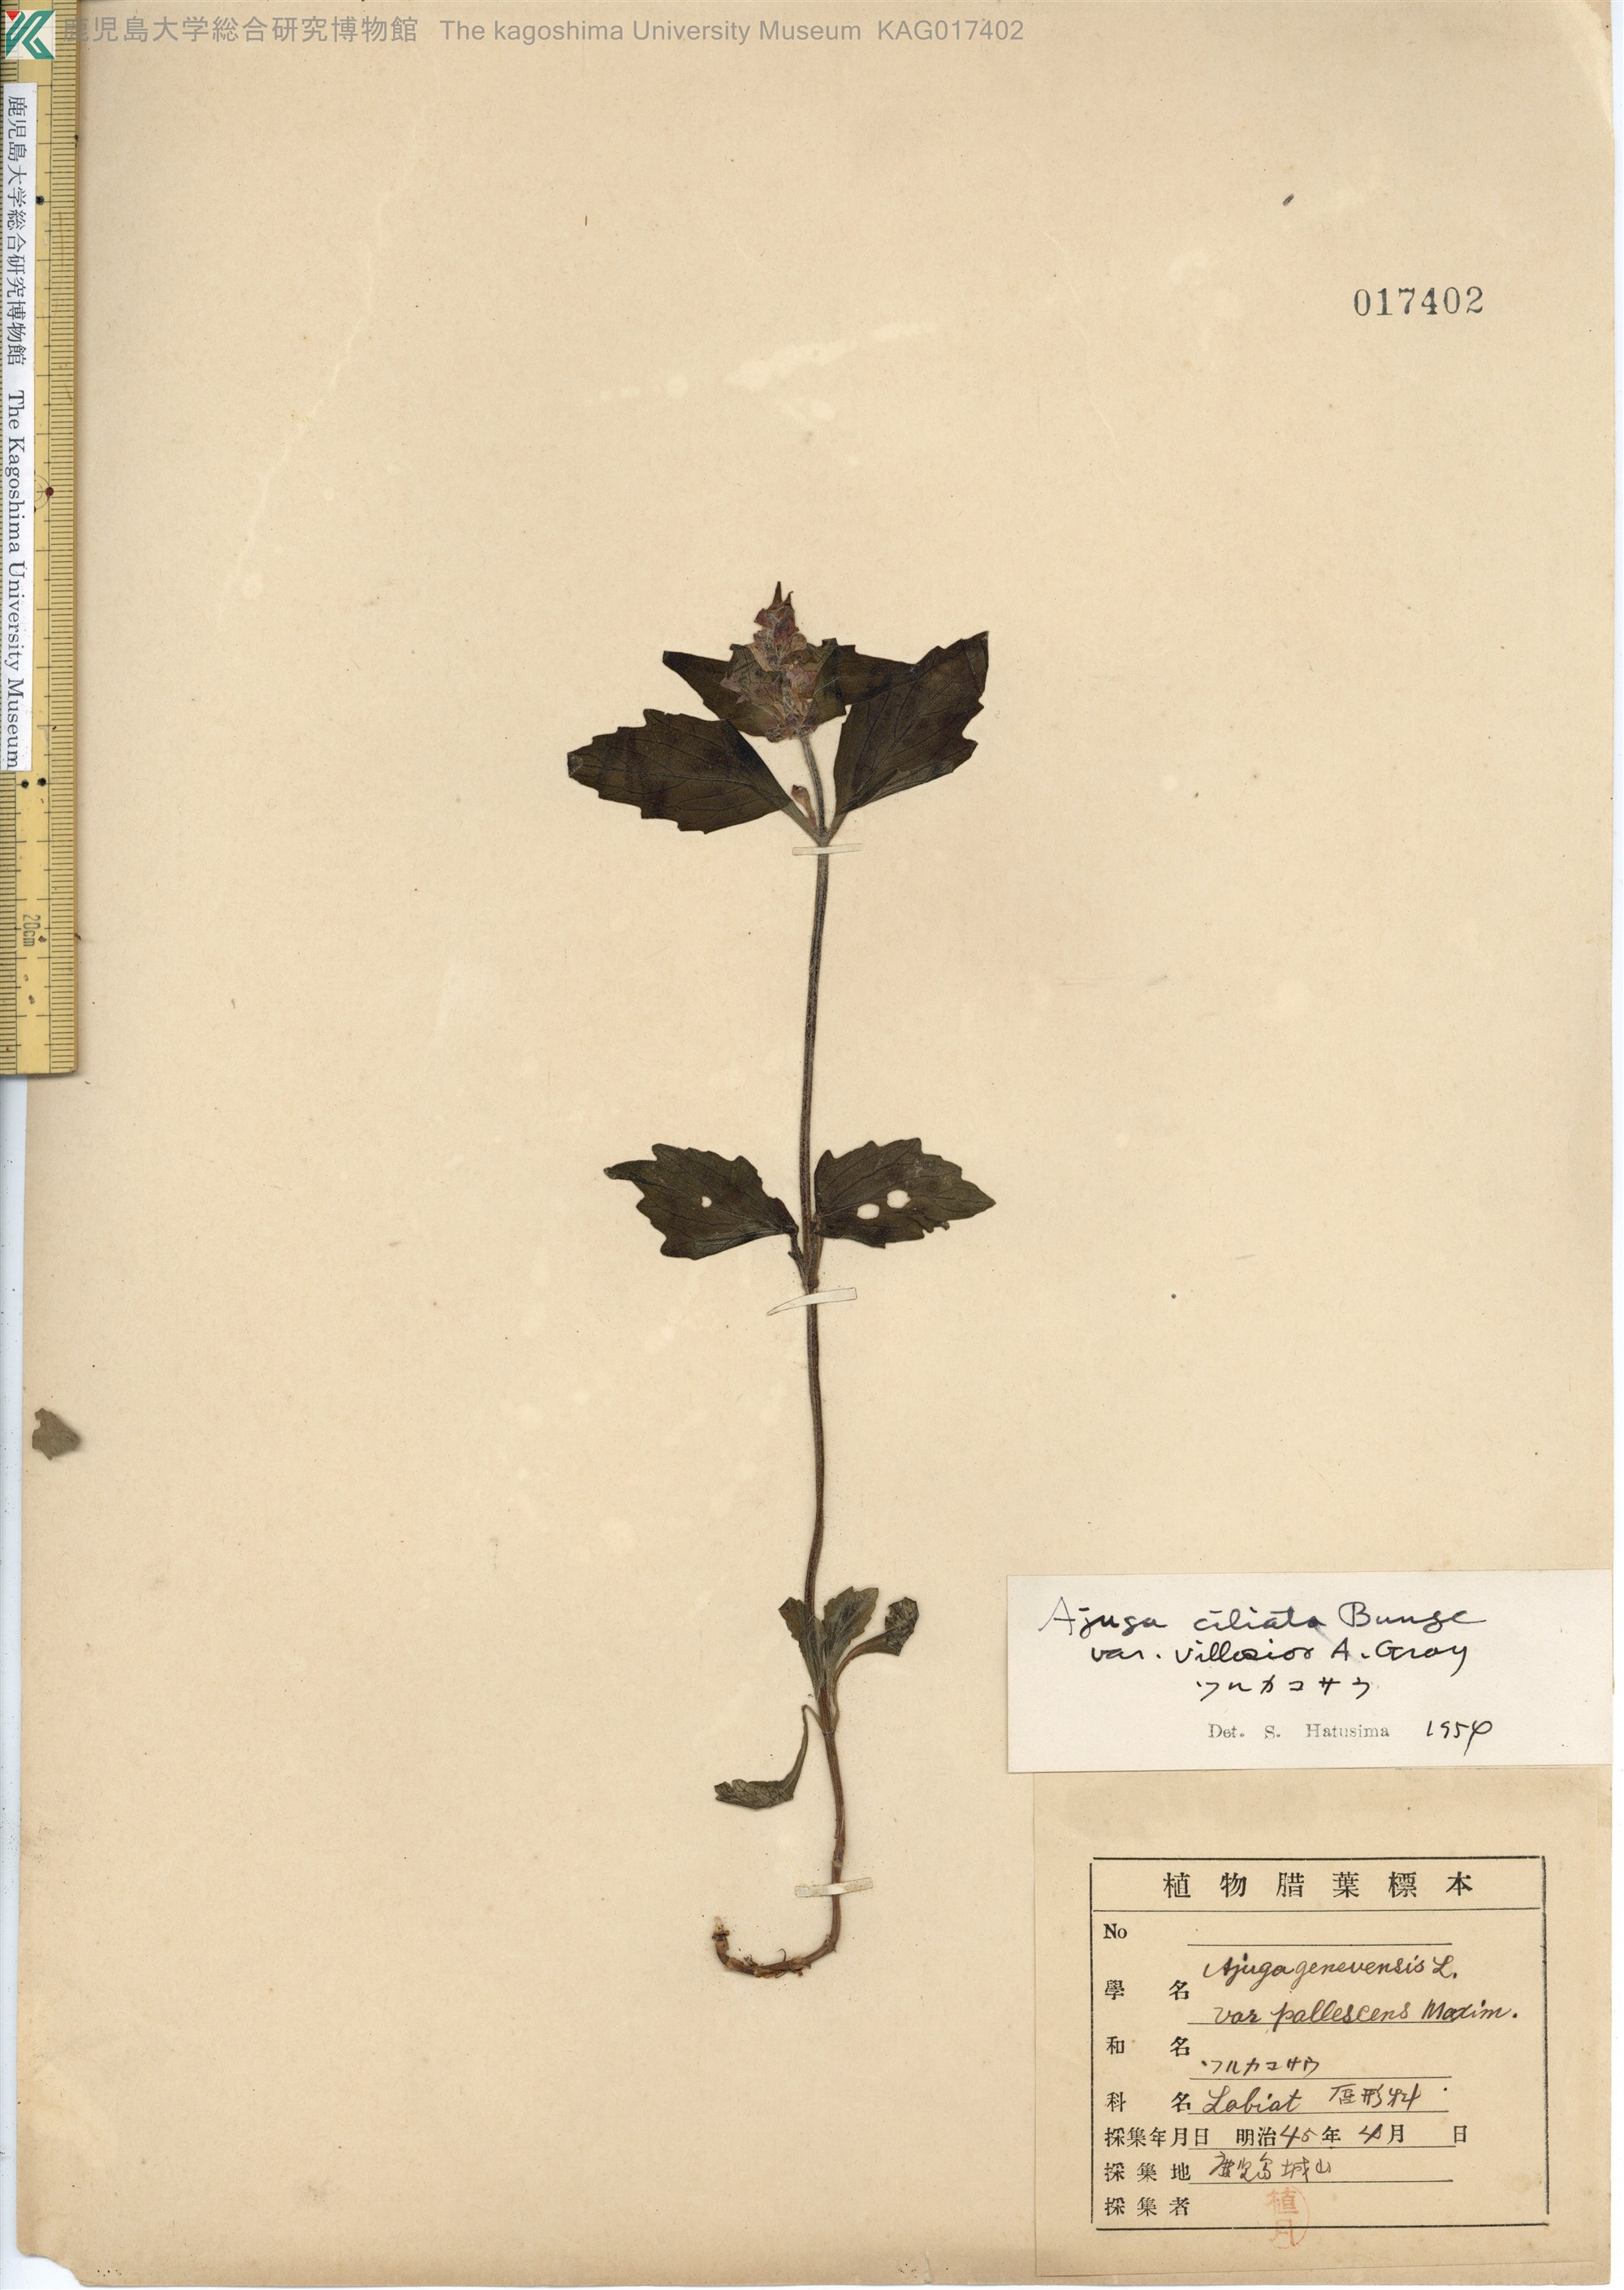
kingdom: Plantae
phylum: Tracheophyta
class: Magnoliopsida
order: Lamiales
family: Lamiaceae
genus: Ajuga
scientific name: Ajuga ciliata
